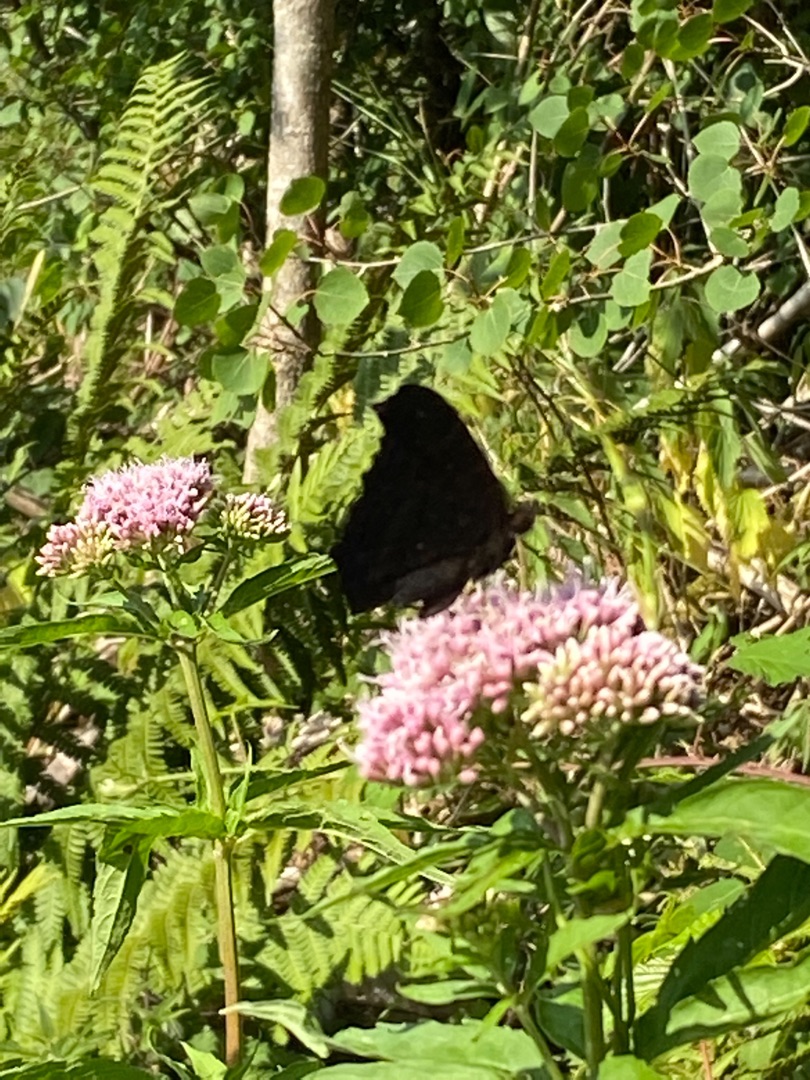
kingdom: Animalia
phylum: Arthropoda
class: Insecta
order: Lepidoptera
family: Nymphalidae
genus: Aglais
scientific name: Aglais io
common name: Dagpåfugleøje
